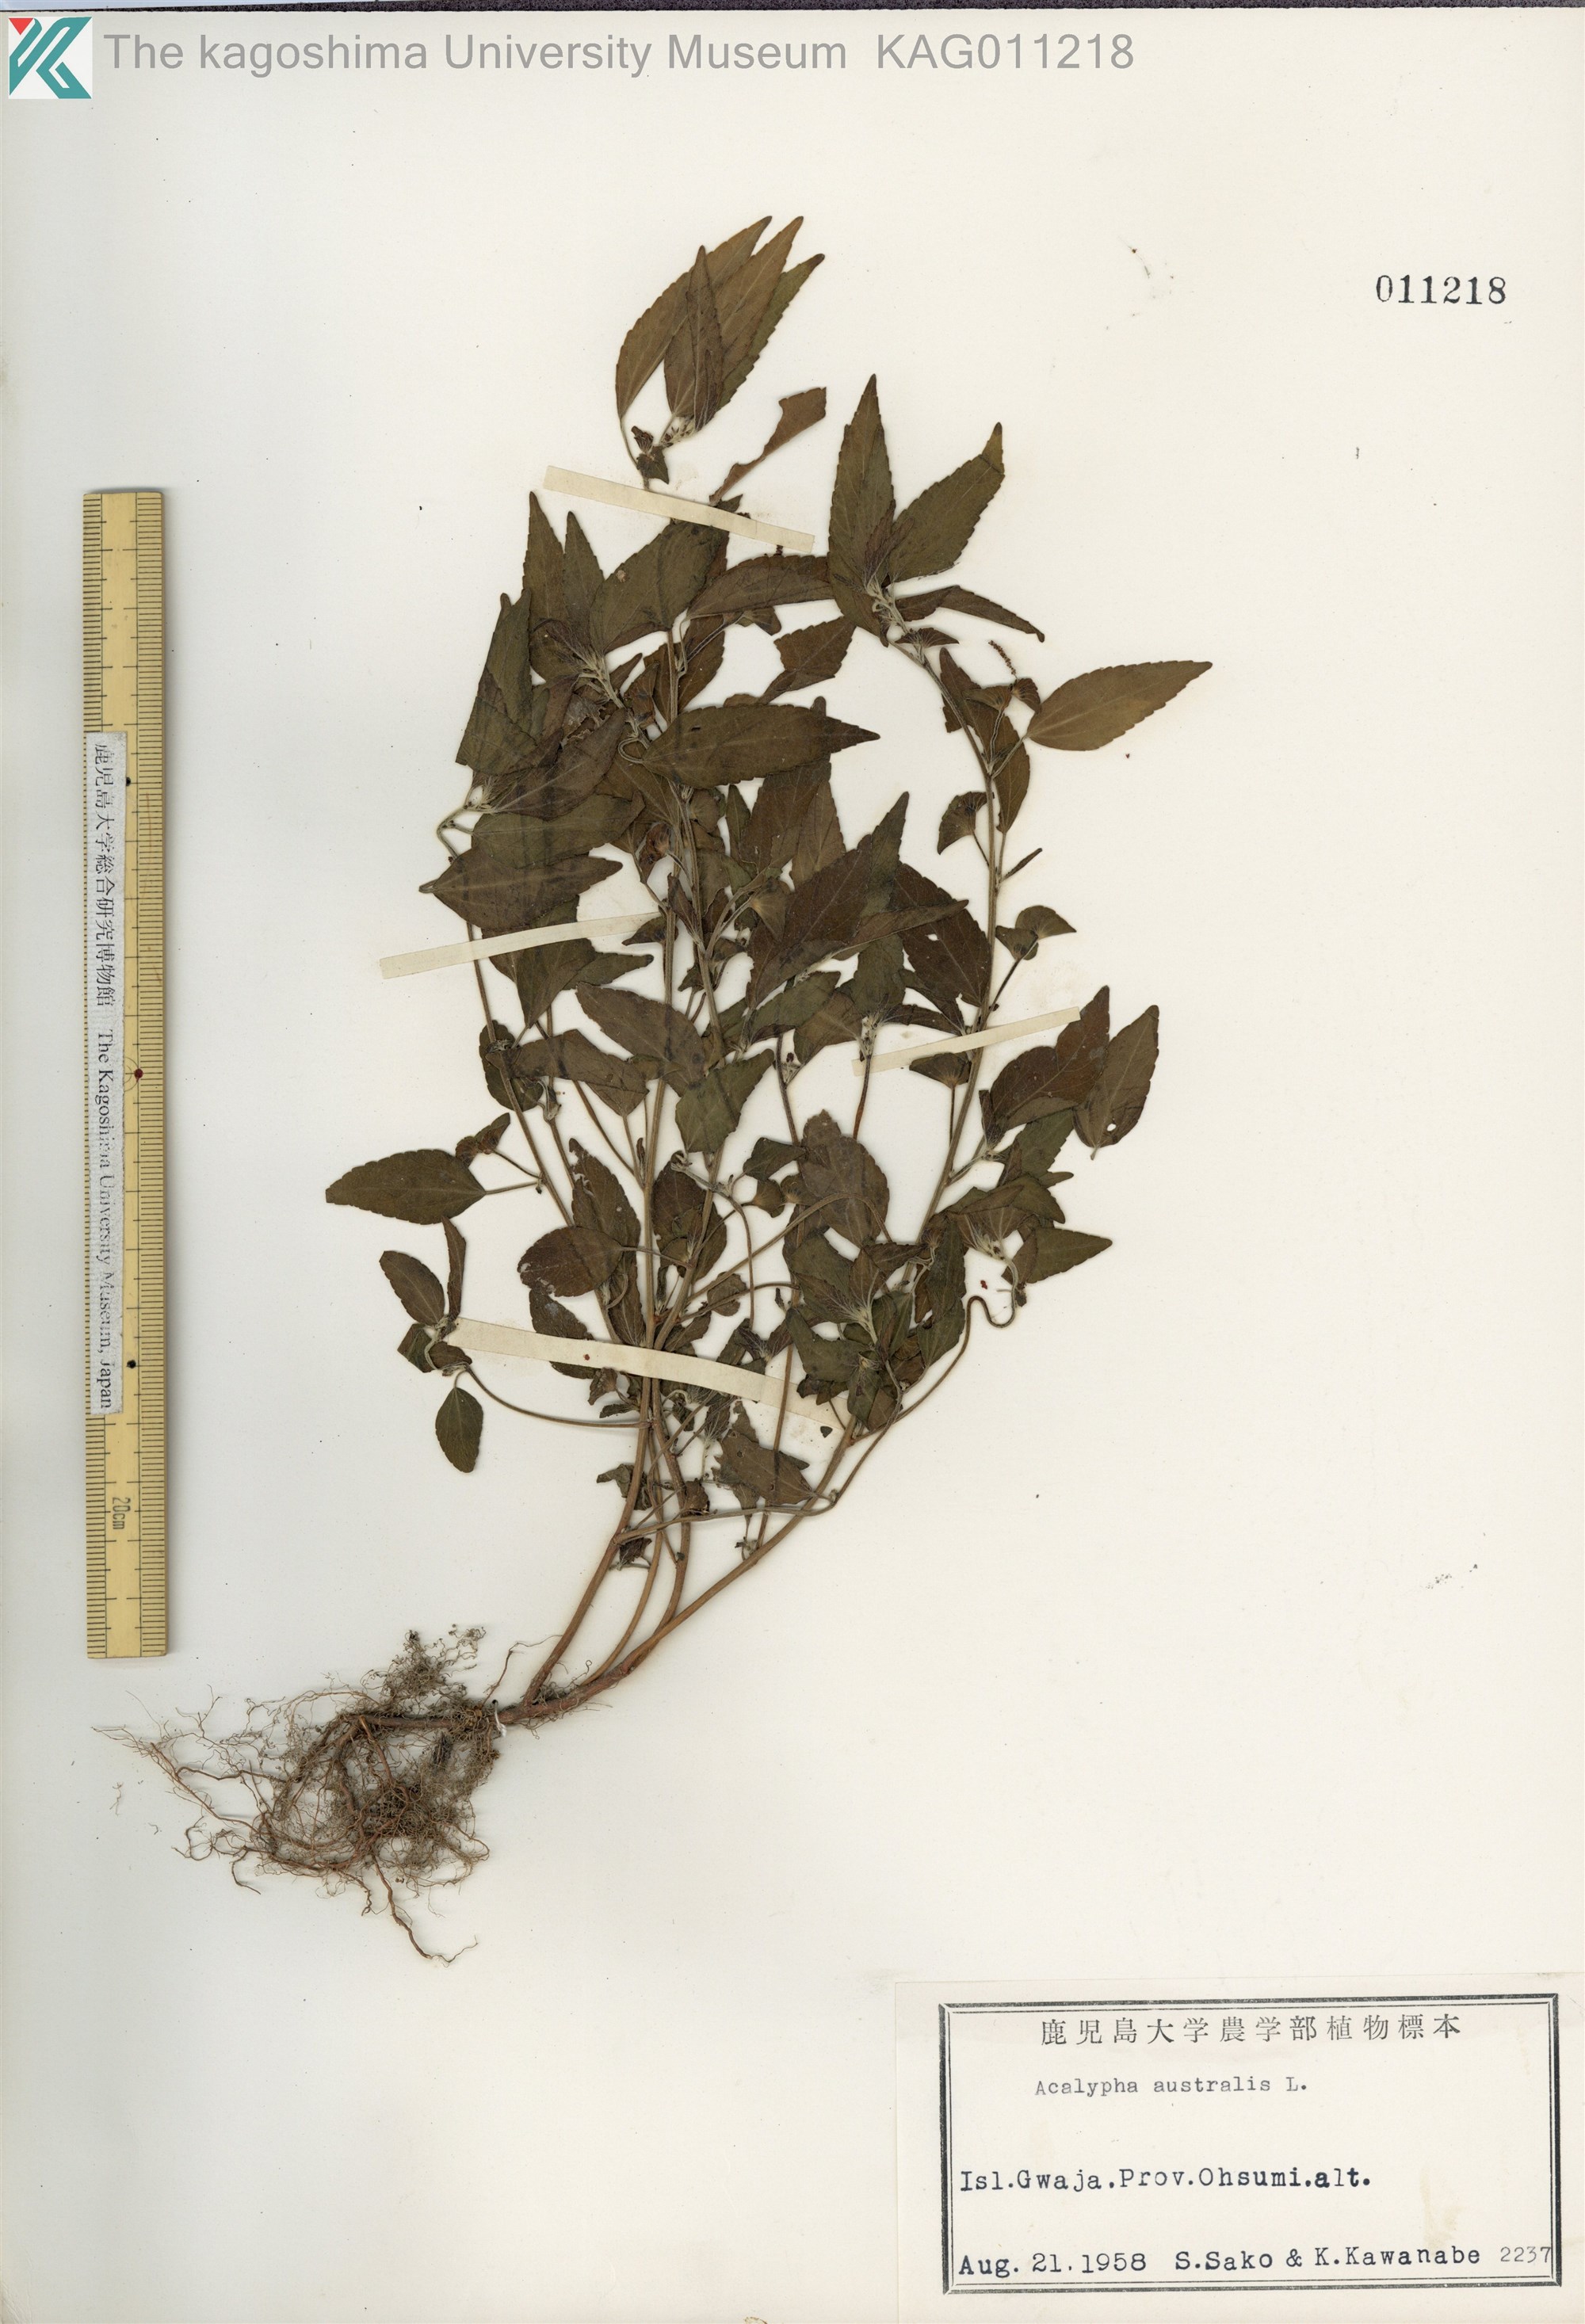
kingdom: Plantae
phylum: Tracheophyta
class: Magnoliopsida
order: Malpighiales
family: Euphorbiaceae
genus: Acalypha
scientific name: Acalypha australis
